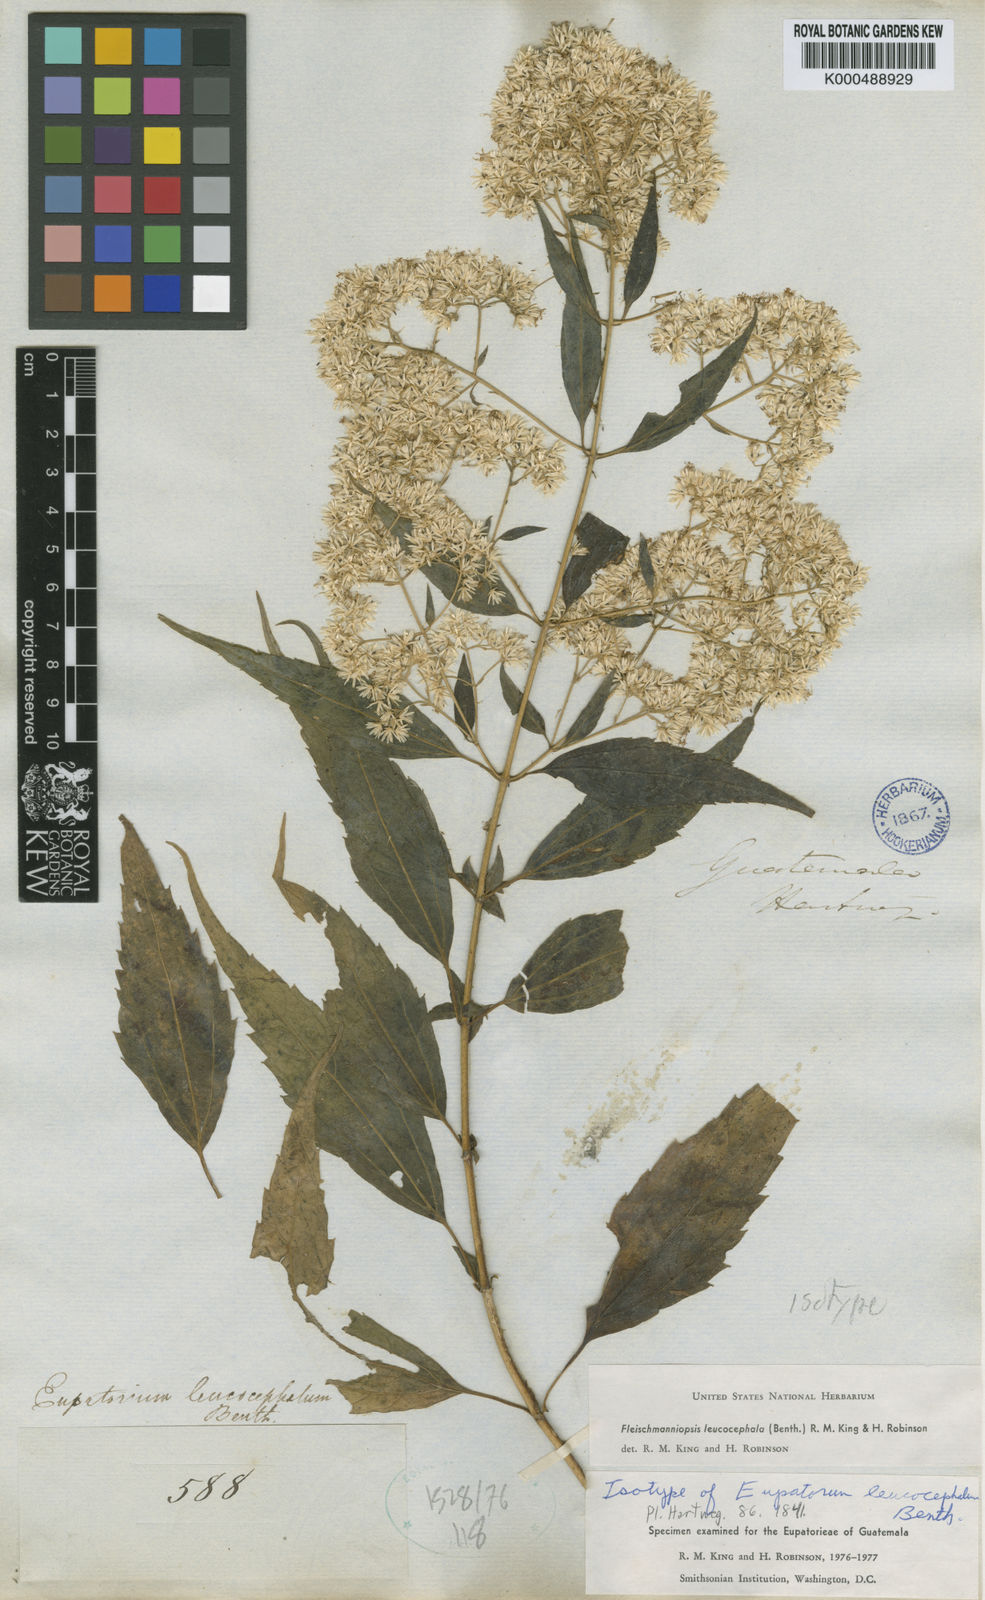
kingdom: Plantae
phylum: Tracheophyta
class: Magnoliopsida
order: Asterales
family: Asteraceae
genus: Fleischmannia
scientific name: Fleischmannia
